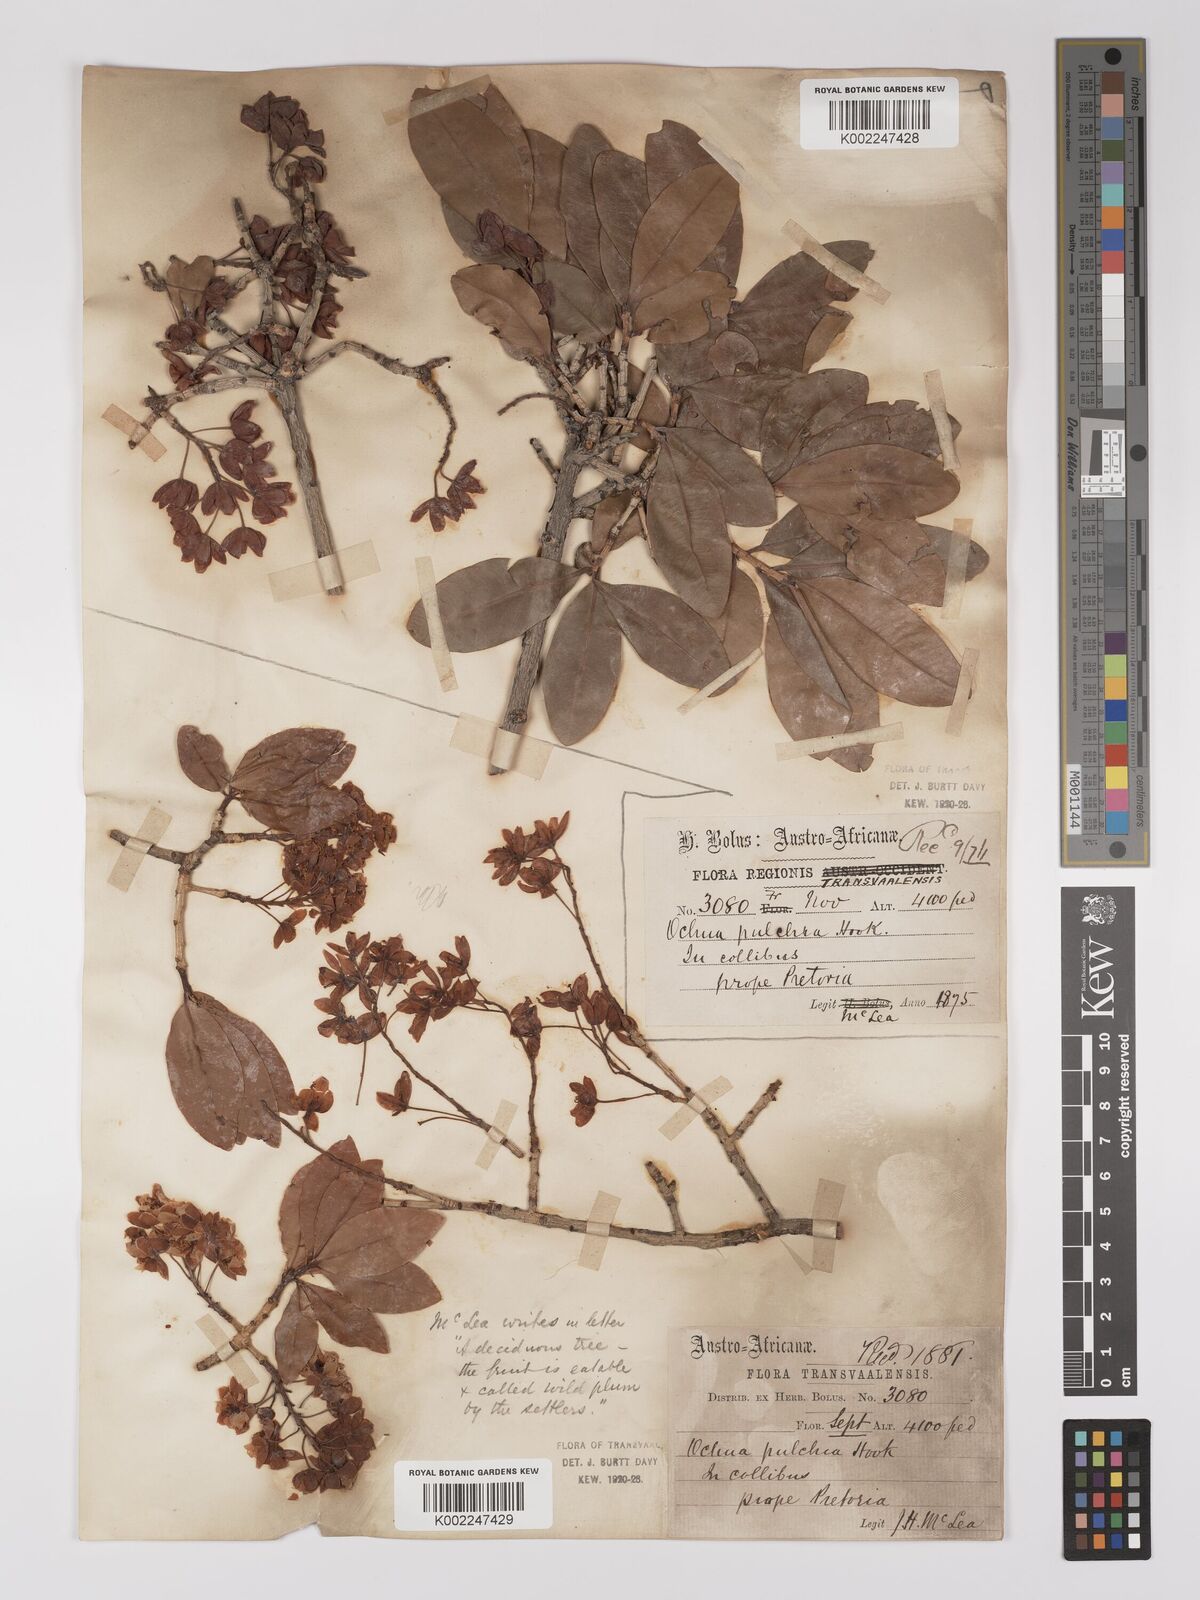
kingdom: Plantae
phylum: Tracheophyta
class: Magnoliopsida
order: Malpighiales
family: Ochnaceae
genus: Ochna
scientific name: Ochna pulchra
